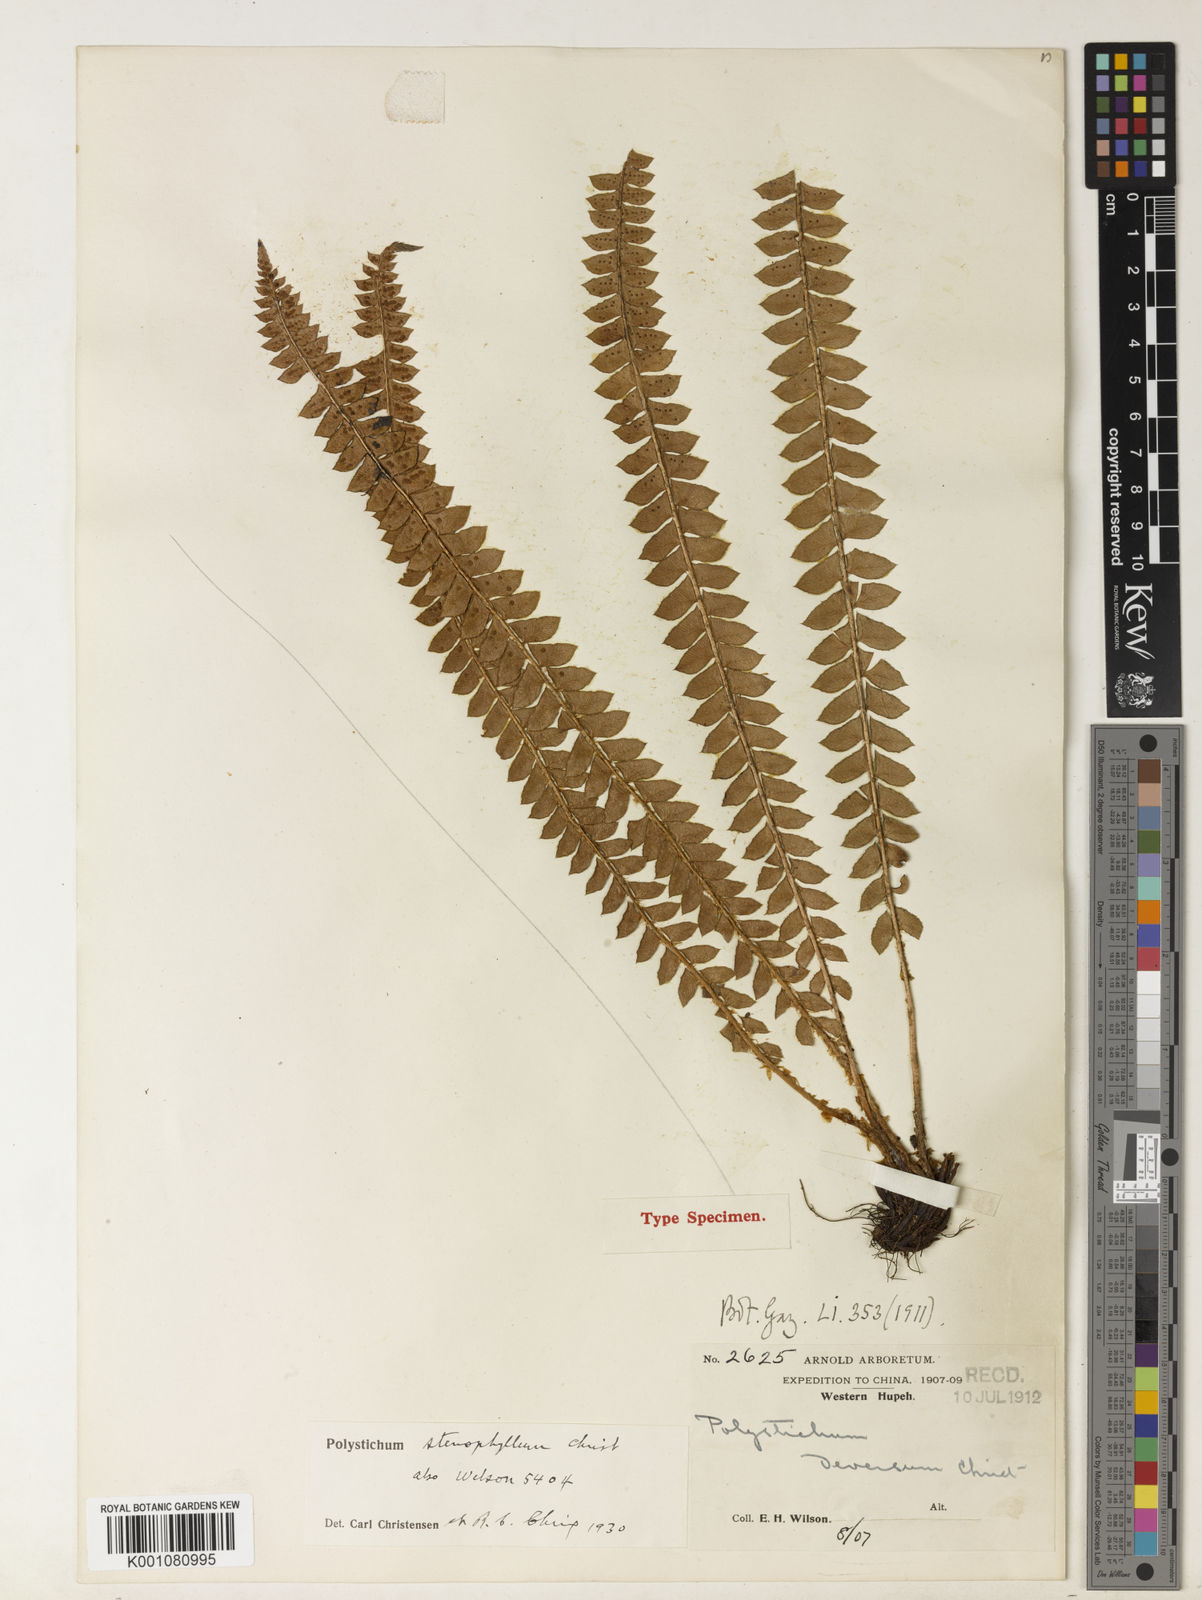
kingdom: Plantae
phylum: Tracheophyta
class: Polypodiopsida
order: Polypodiales
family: Dryopteridaceae
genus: Polystichum
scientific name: Polystichum levingei
